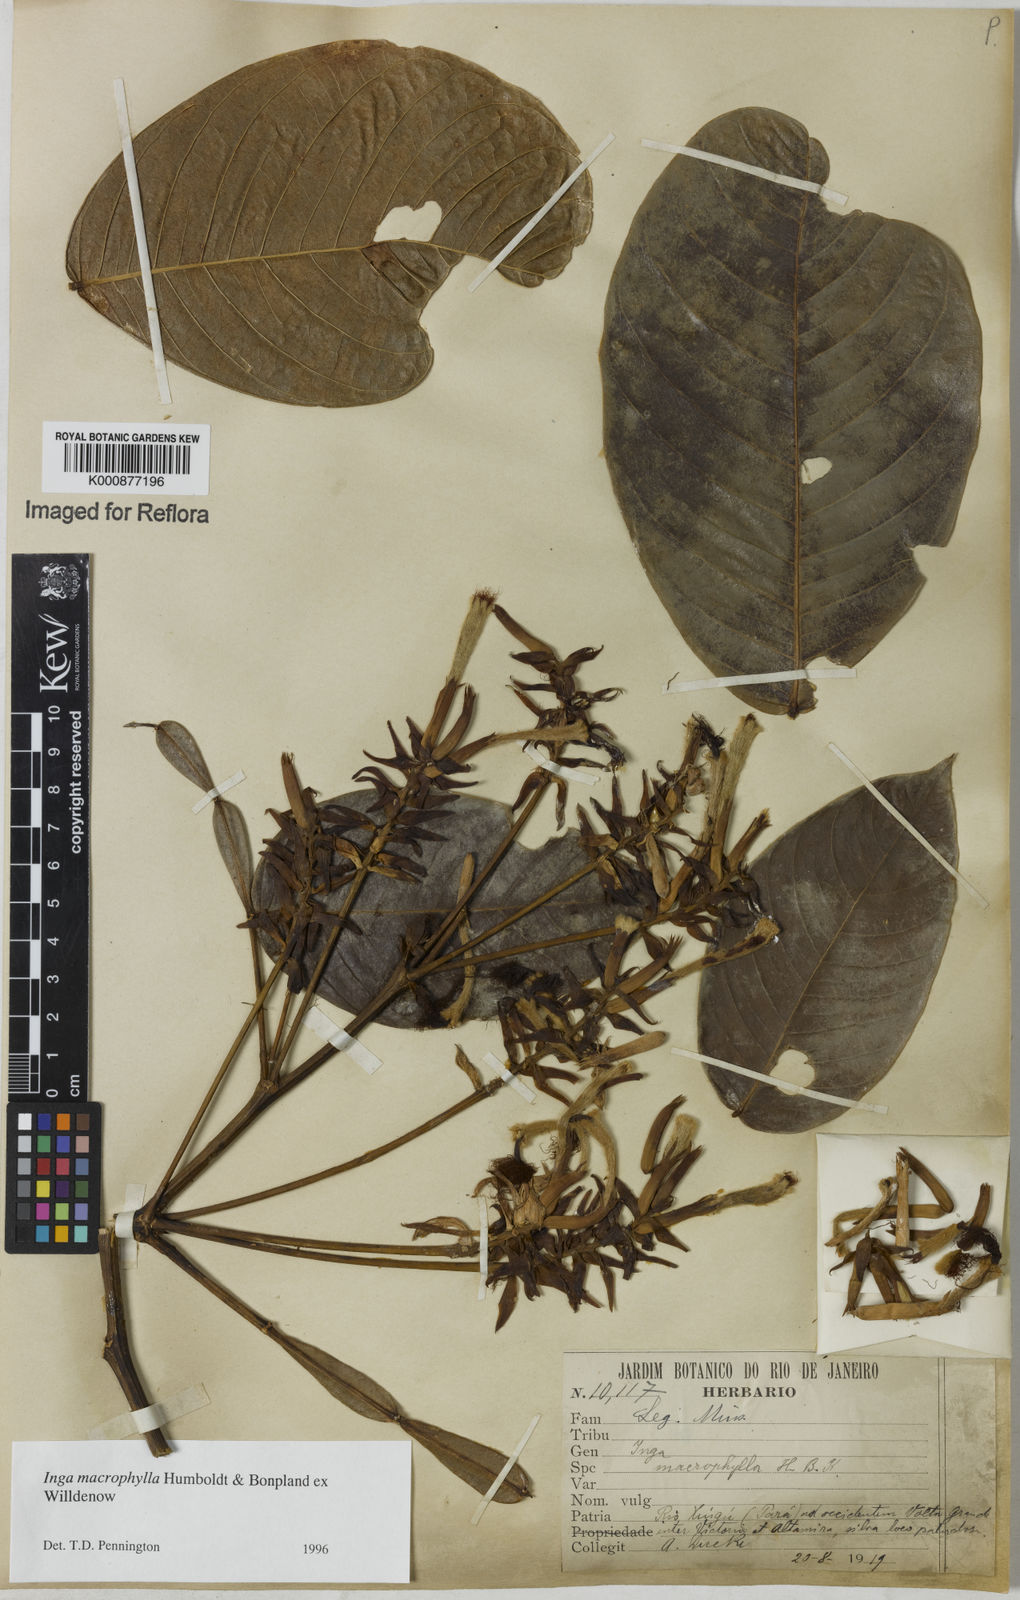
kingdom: Plantae
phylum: Tracheophyta
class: Magnoliopsida
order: Fabales
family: Fabaceae
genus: Inga
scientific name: Inga macrophylla
